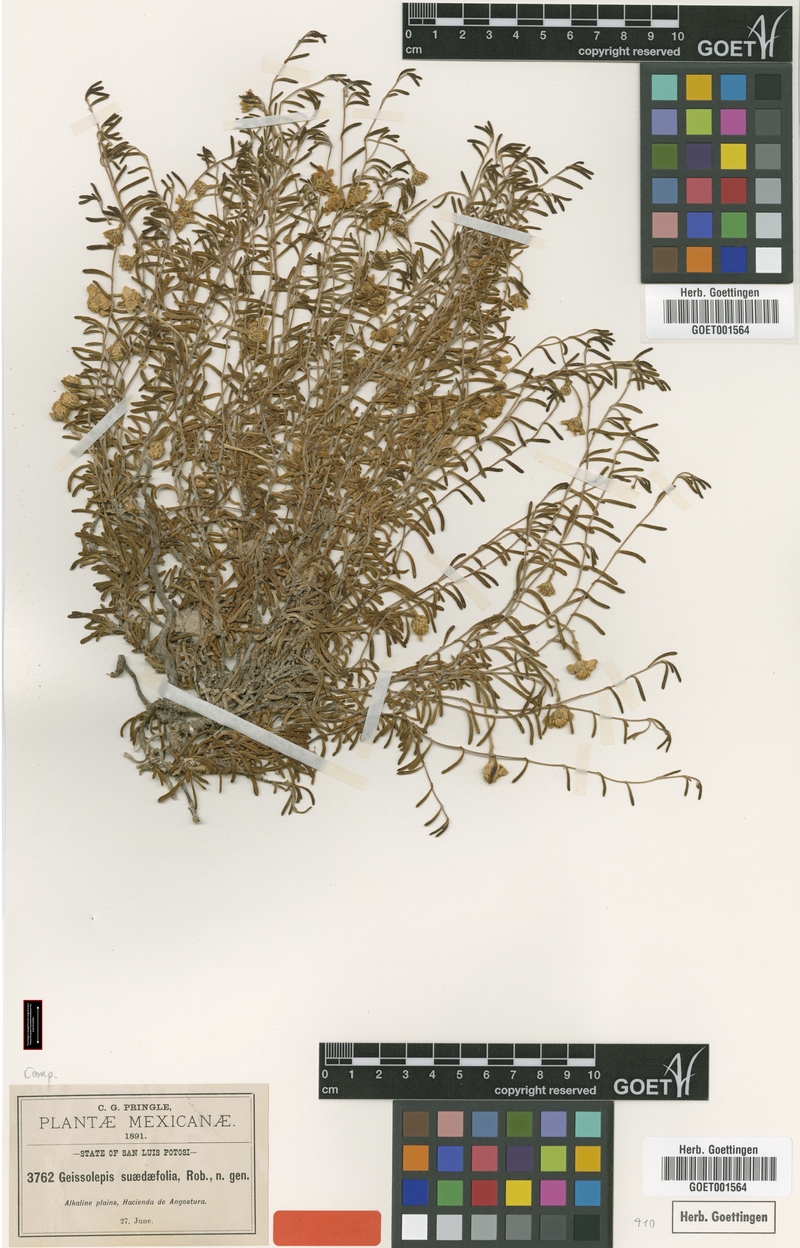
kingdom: Plantae
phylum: Tracheophyta
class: Magnoliopsida
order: Asterales
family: Asteraceae
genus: Geissolepis
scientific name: Geissolepis suaedifolia
